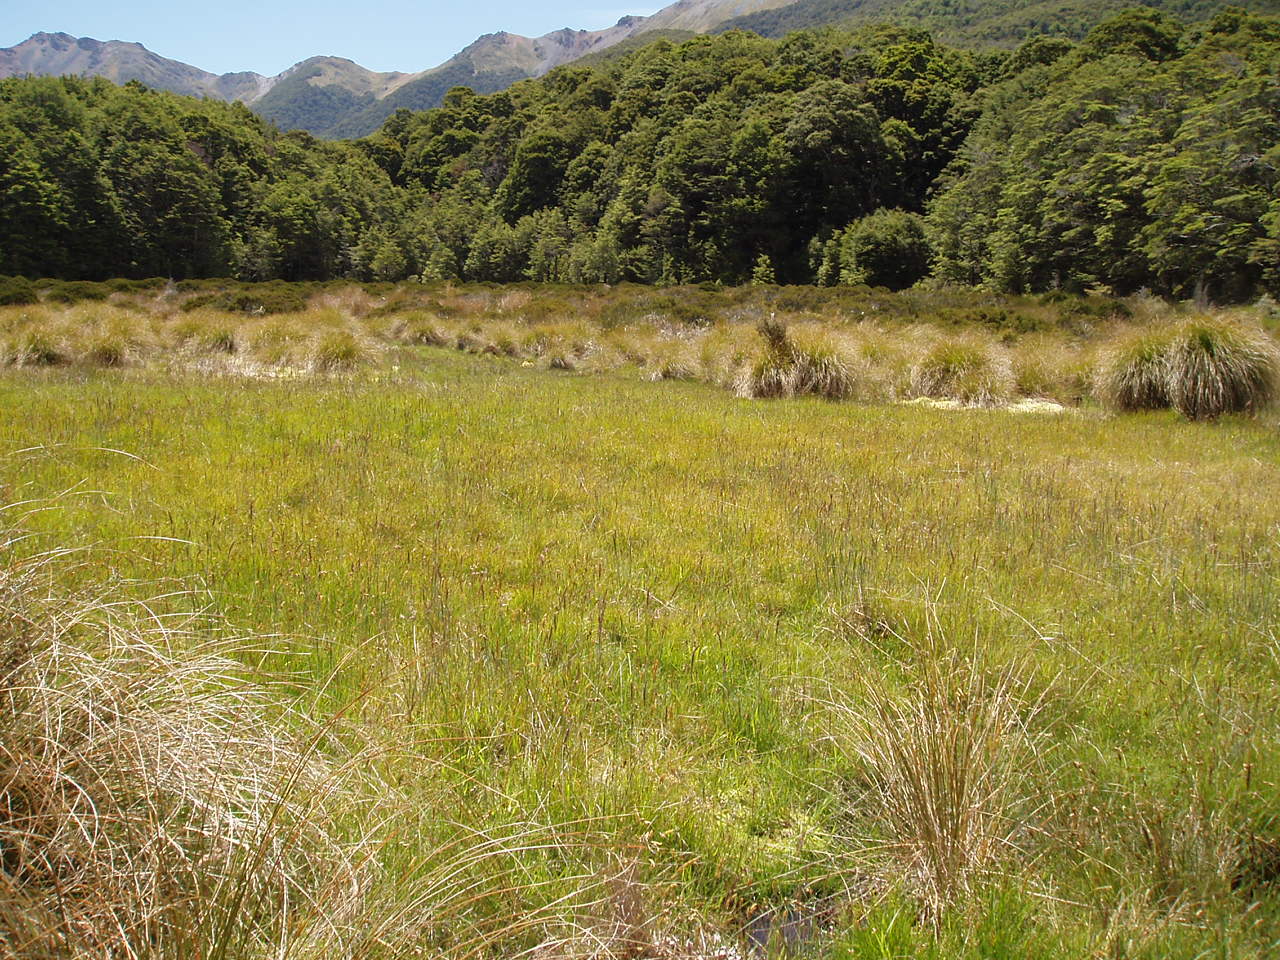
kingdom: Plantae
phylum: Bryophyta
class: Sphagnopsida
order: Sphagnales
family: Sphagnaceae
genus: Sphagnum
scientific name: Sphagnum
